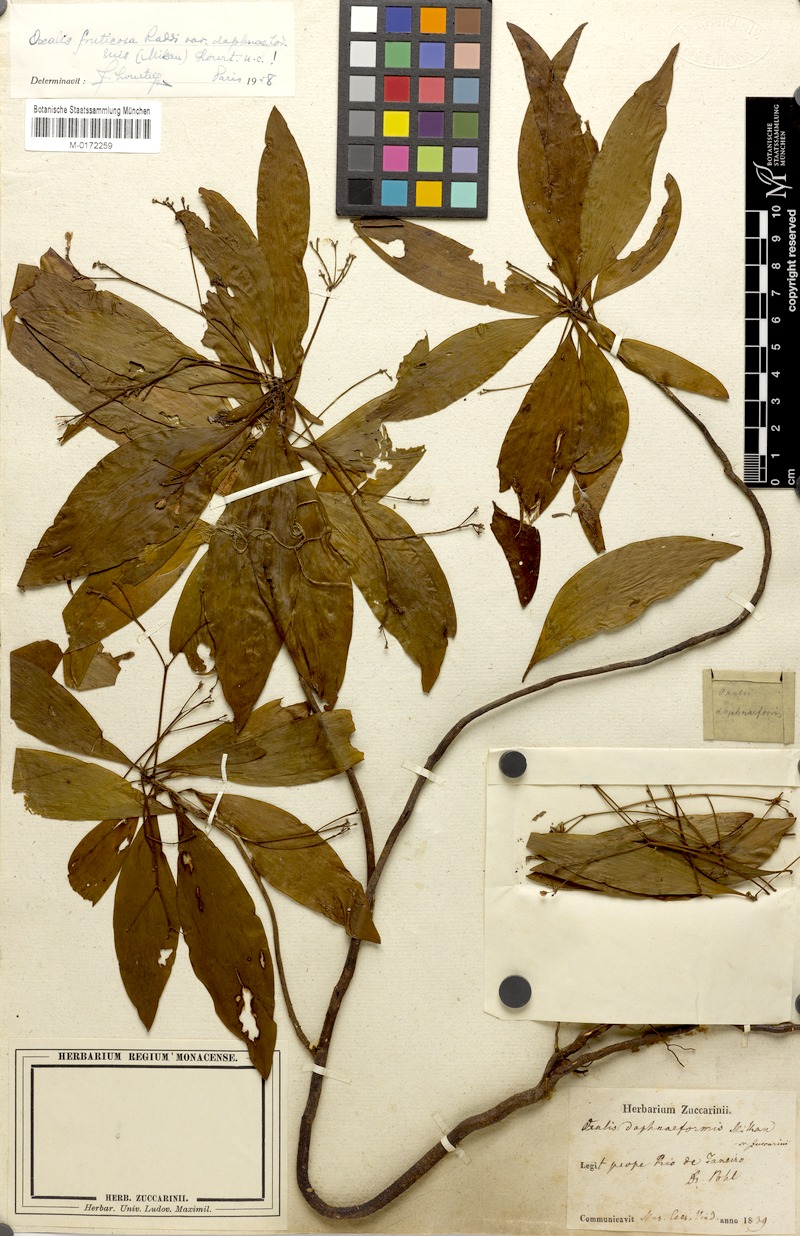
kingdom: Plantae
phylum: Tracheophyta
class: Magnoliopsida
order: Oxalidales
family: Oxalidaceae
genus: Oxalis
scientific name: Oxalis daphnaeformis
